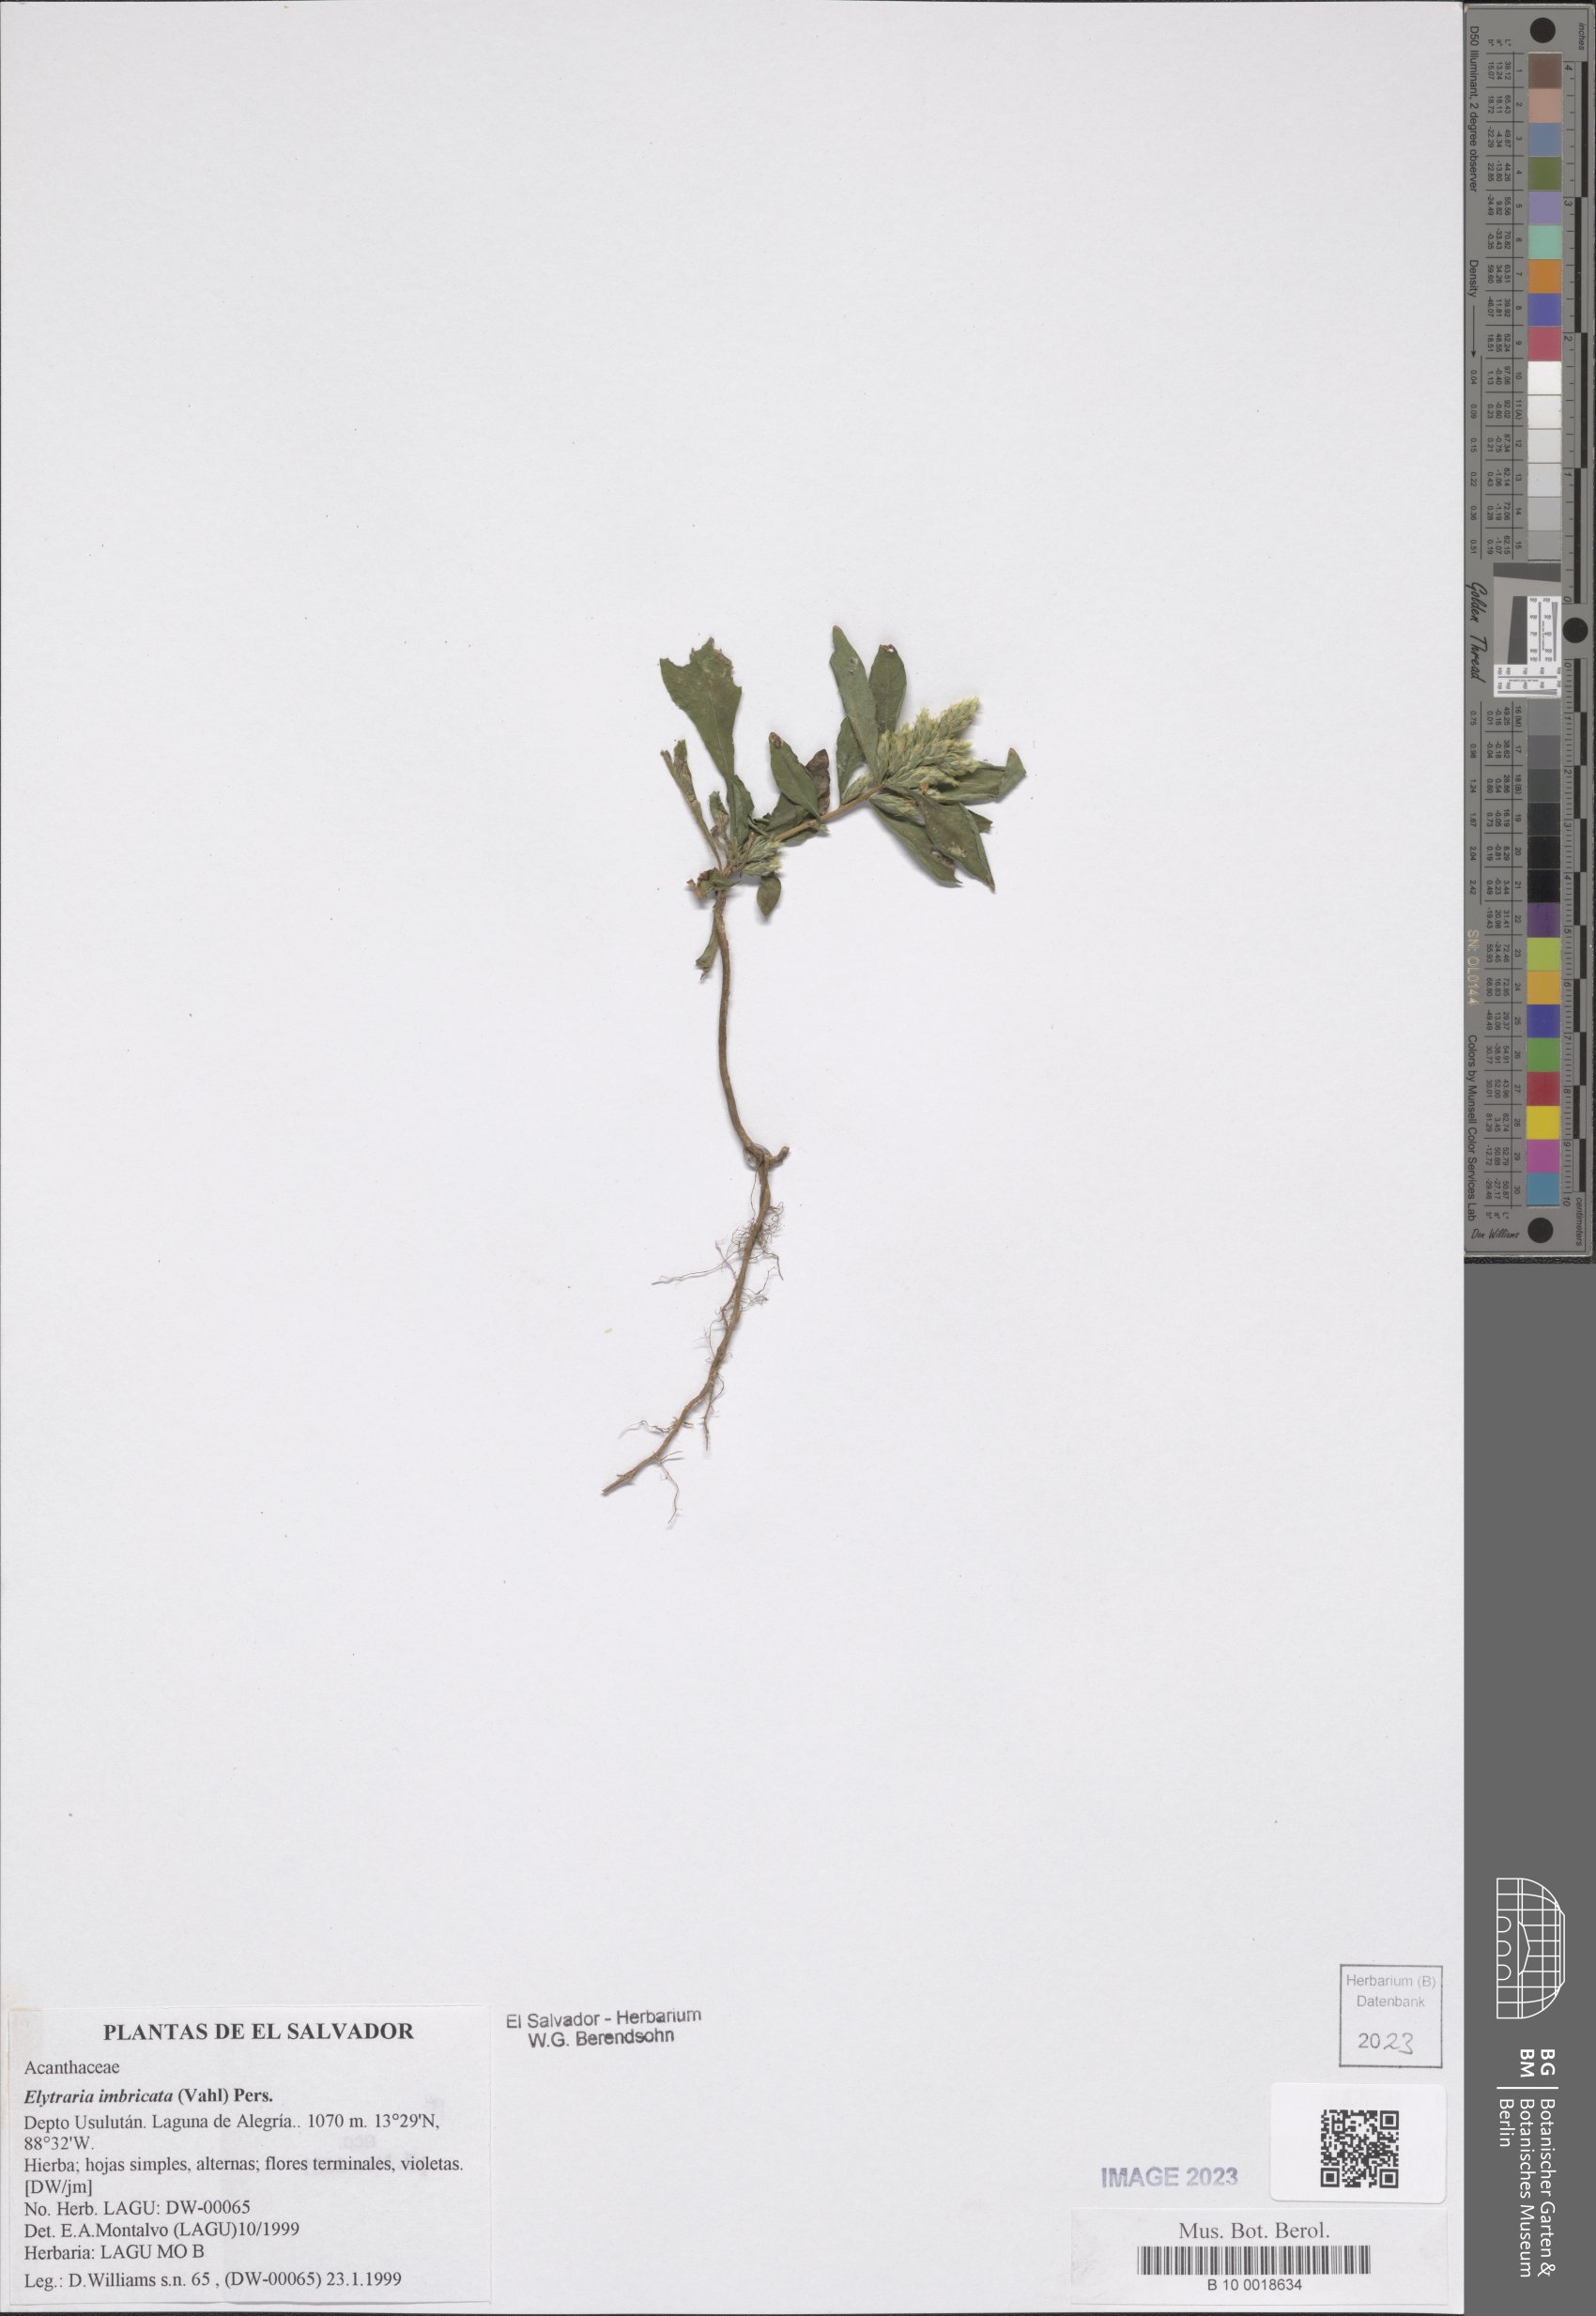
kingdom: Plantae
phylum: Tracheophyta
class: Magnoliopsida
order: Lamiales
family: Acanthaceae
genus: Elytraria
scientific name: Elytraria imbricata
